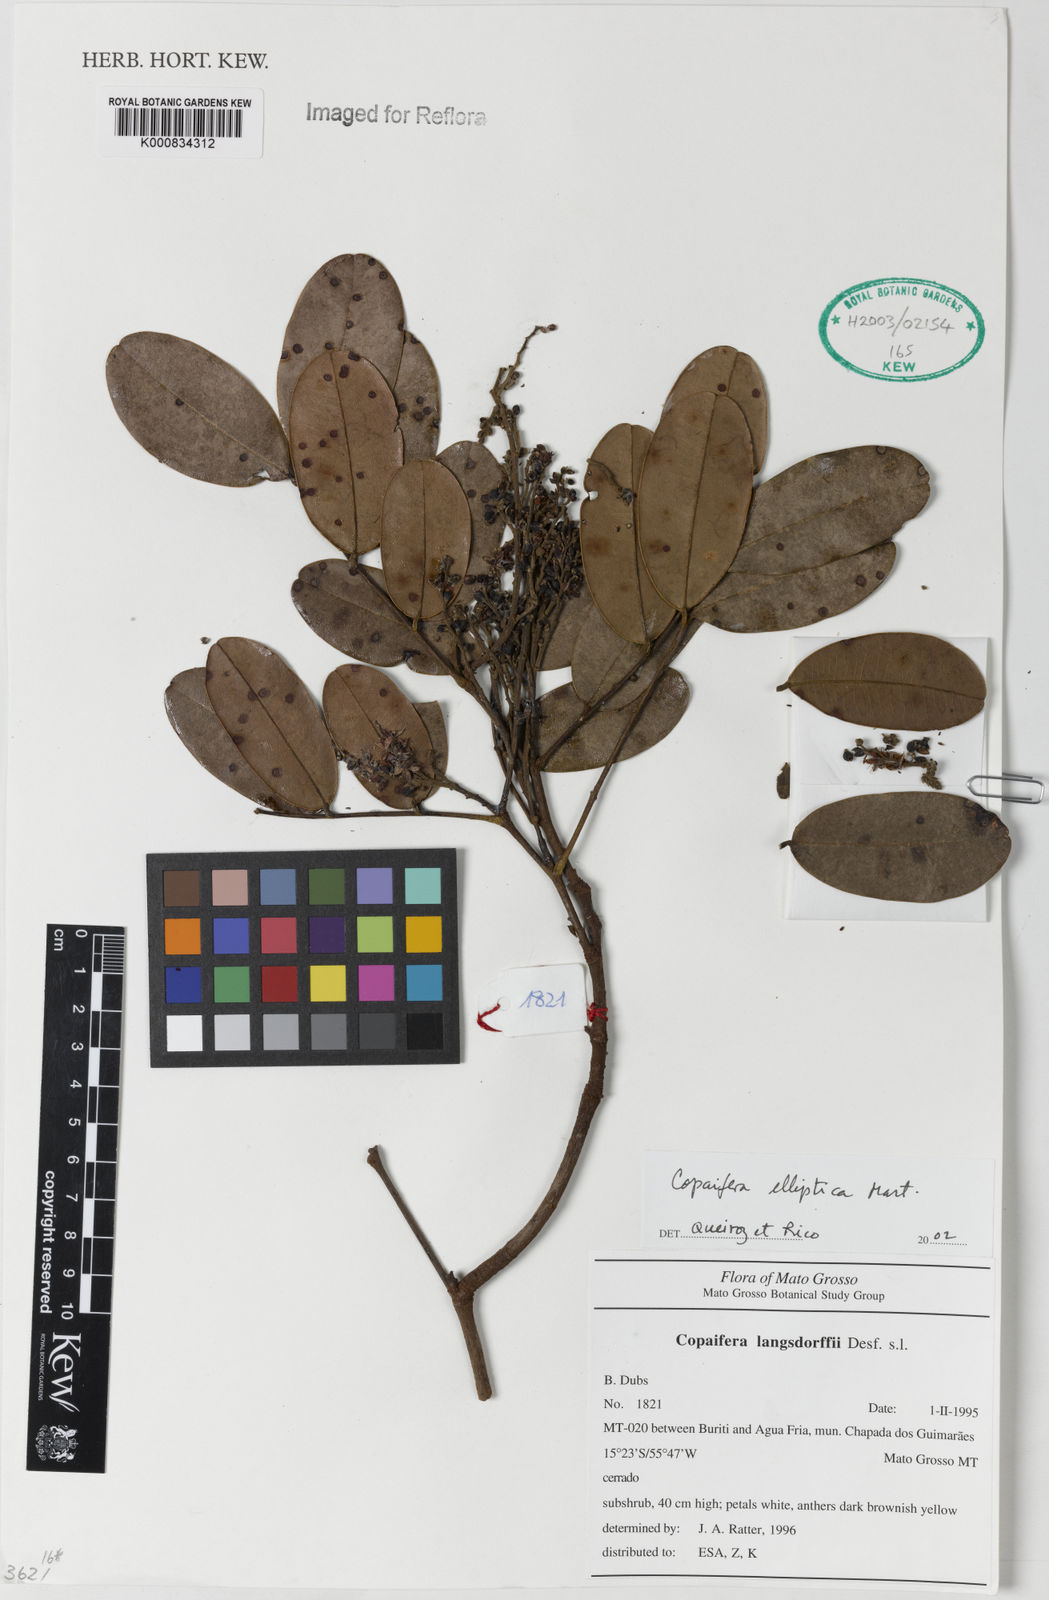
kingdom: Plantae
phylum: Tracheophyta
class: Magnoliopsida
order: Fabales
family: Fabaceae
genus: Copaifera
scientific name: Copaifera elliptica
